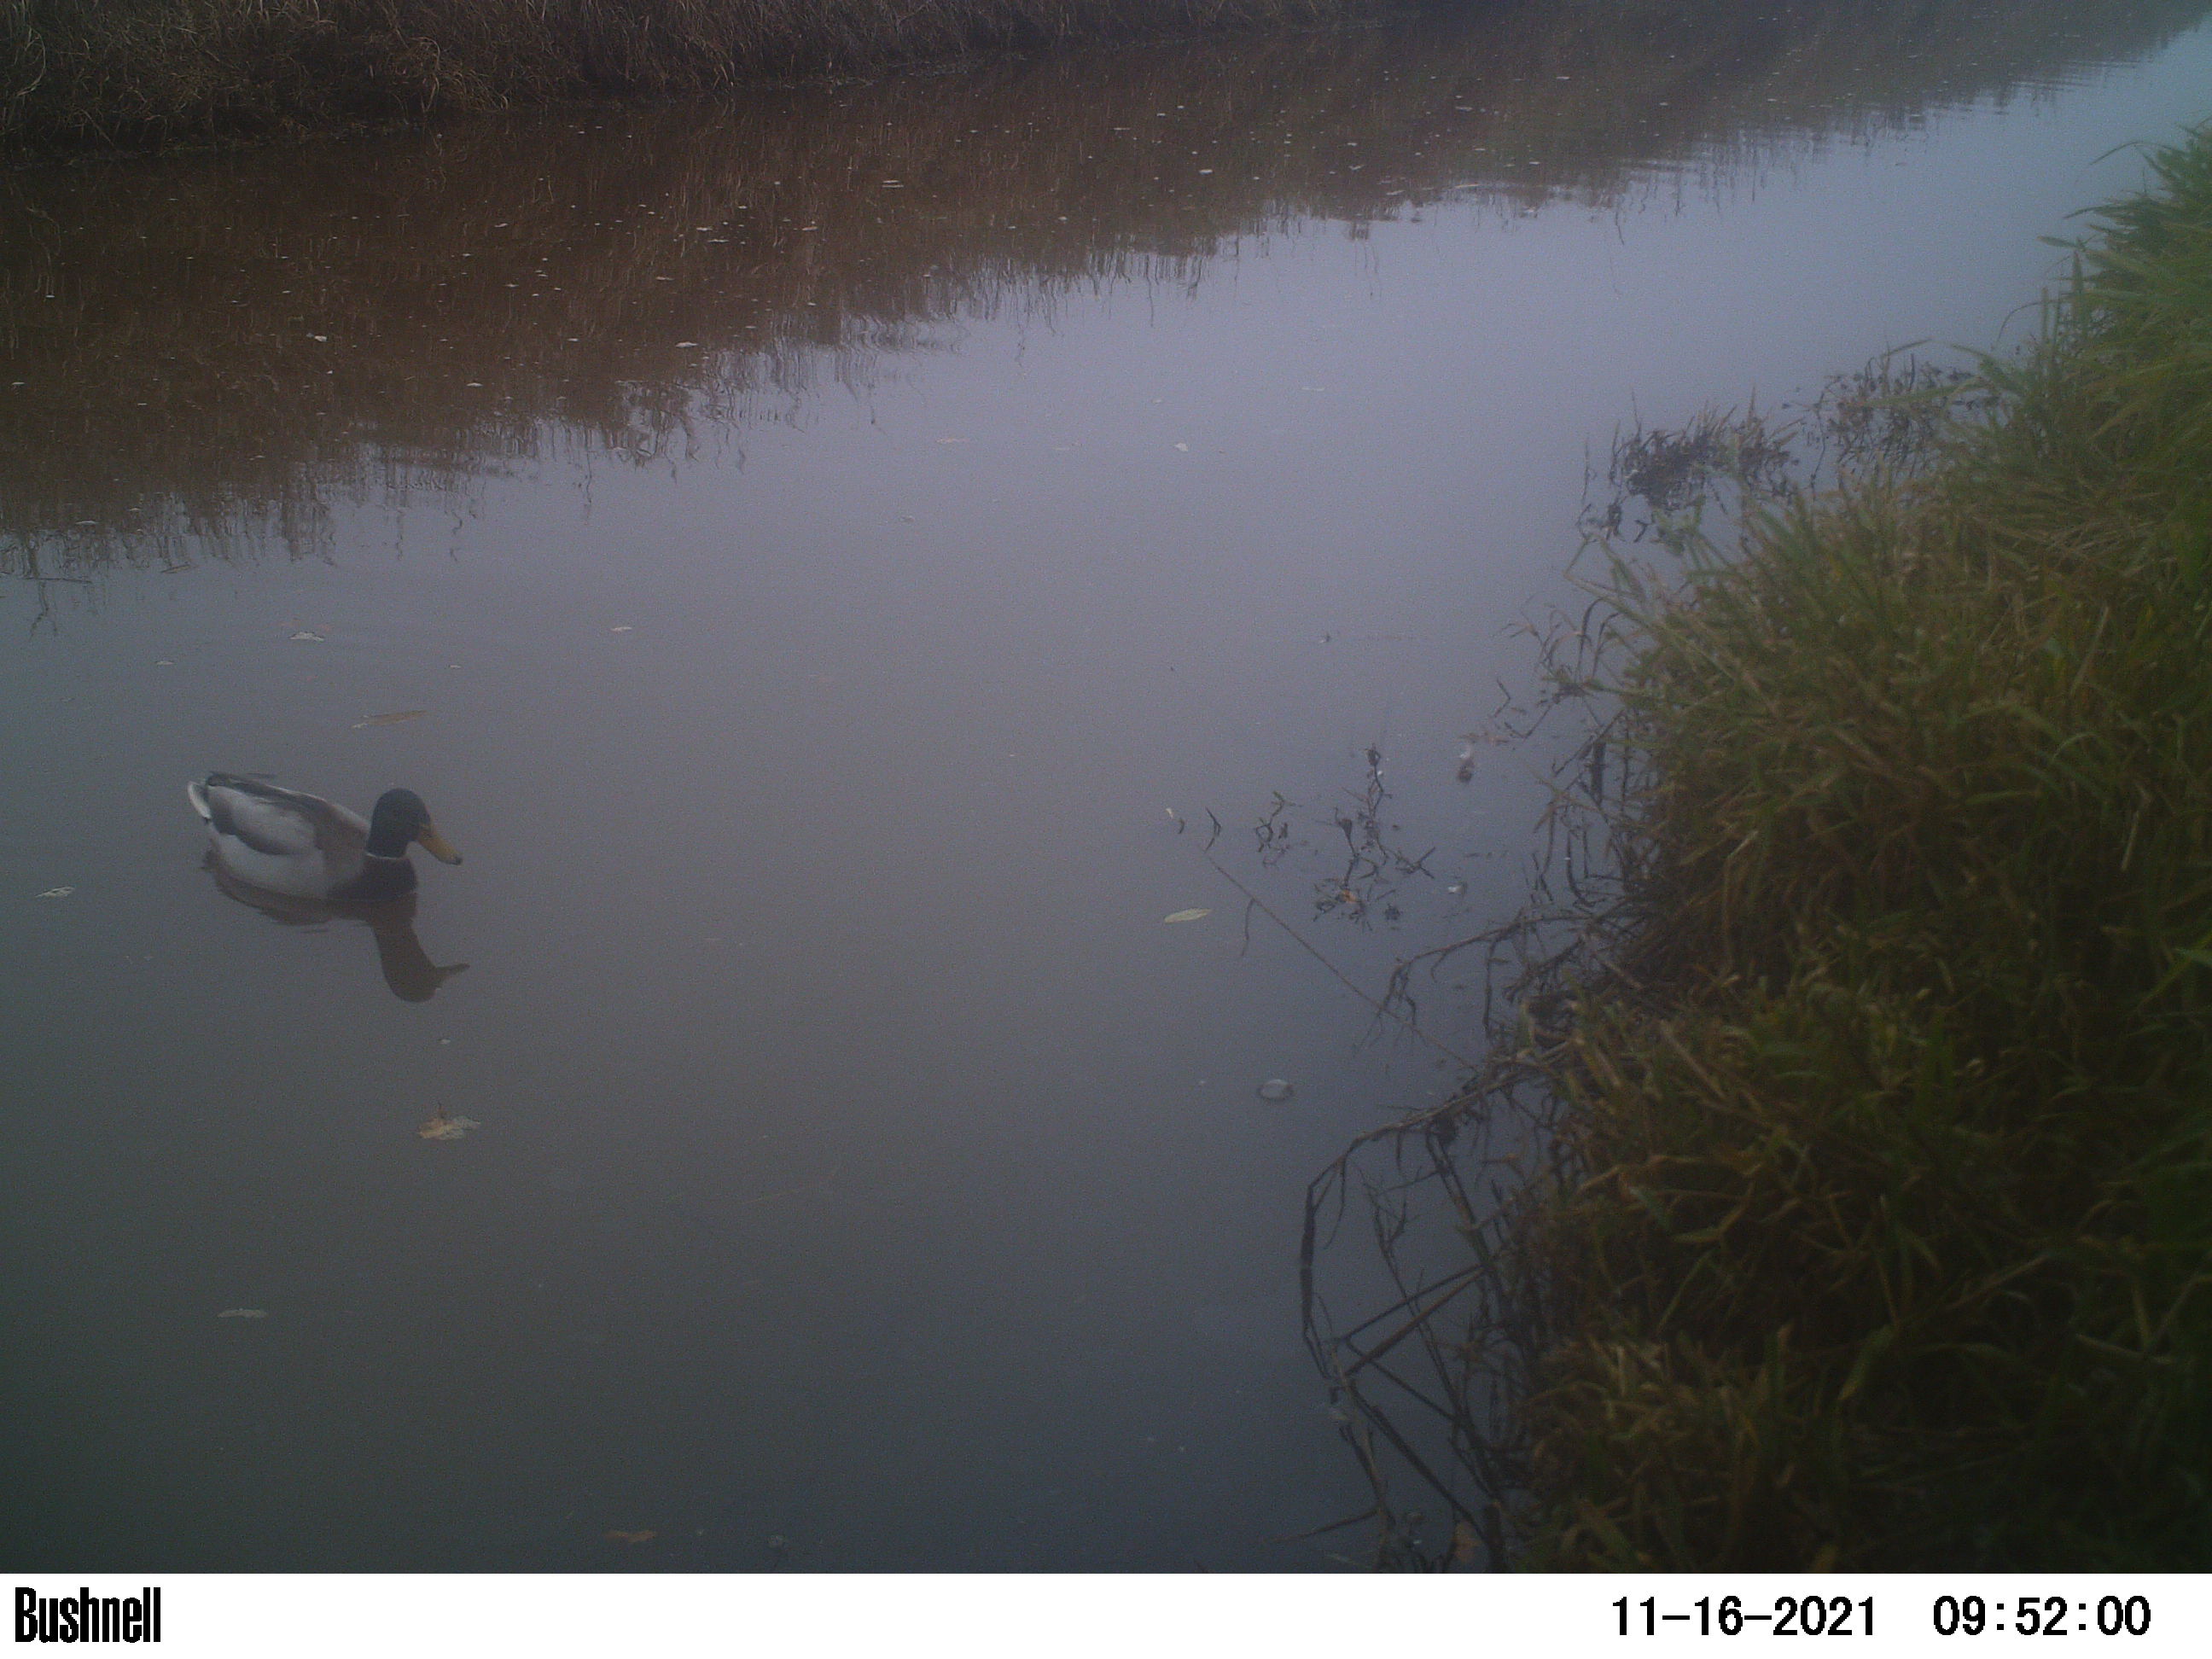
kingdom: Animalia
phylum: Chordata
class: Aves
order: Anseriformes
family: Anatidae
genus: Anas
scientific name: Anas
